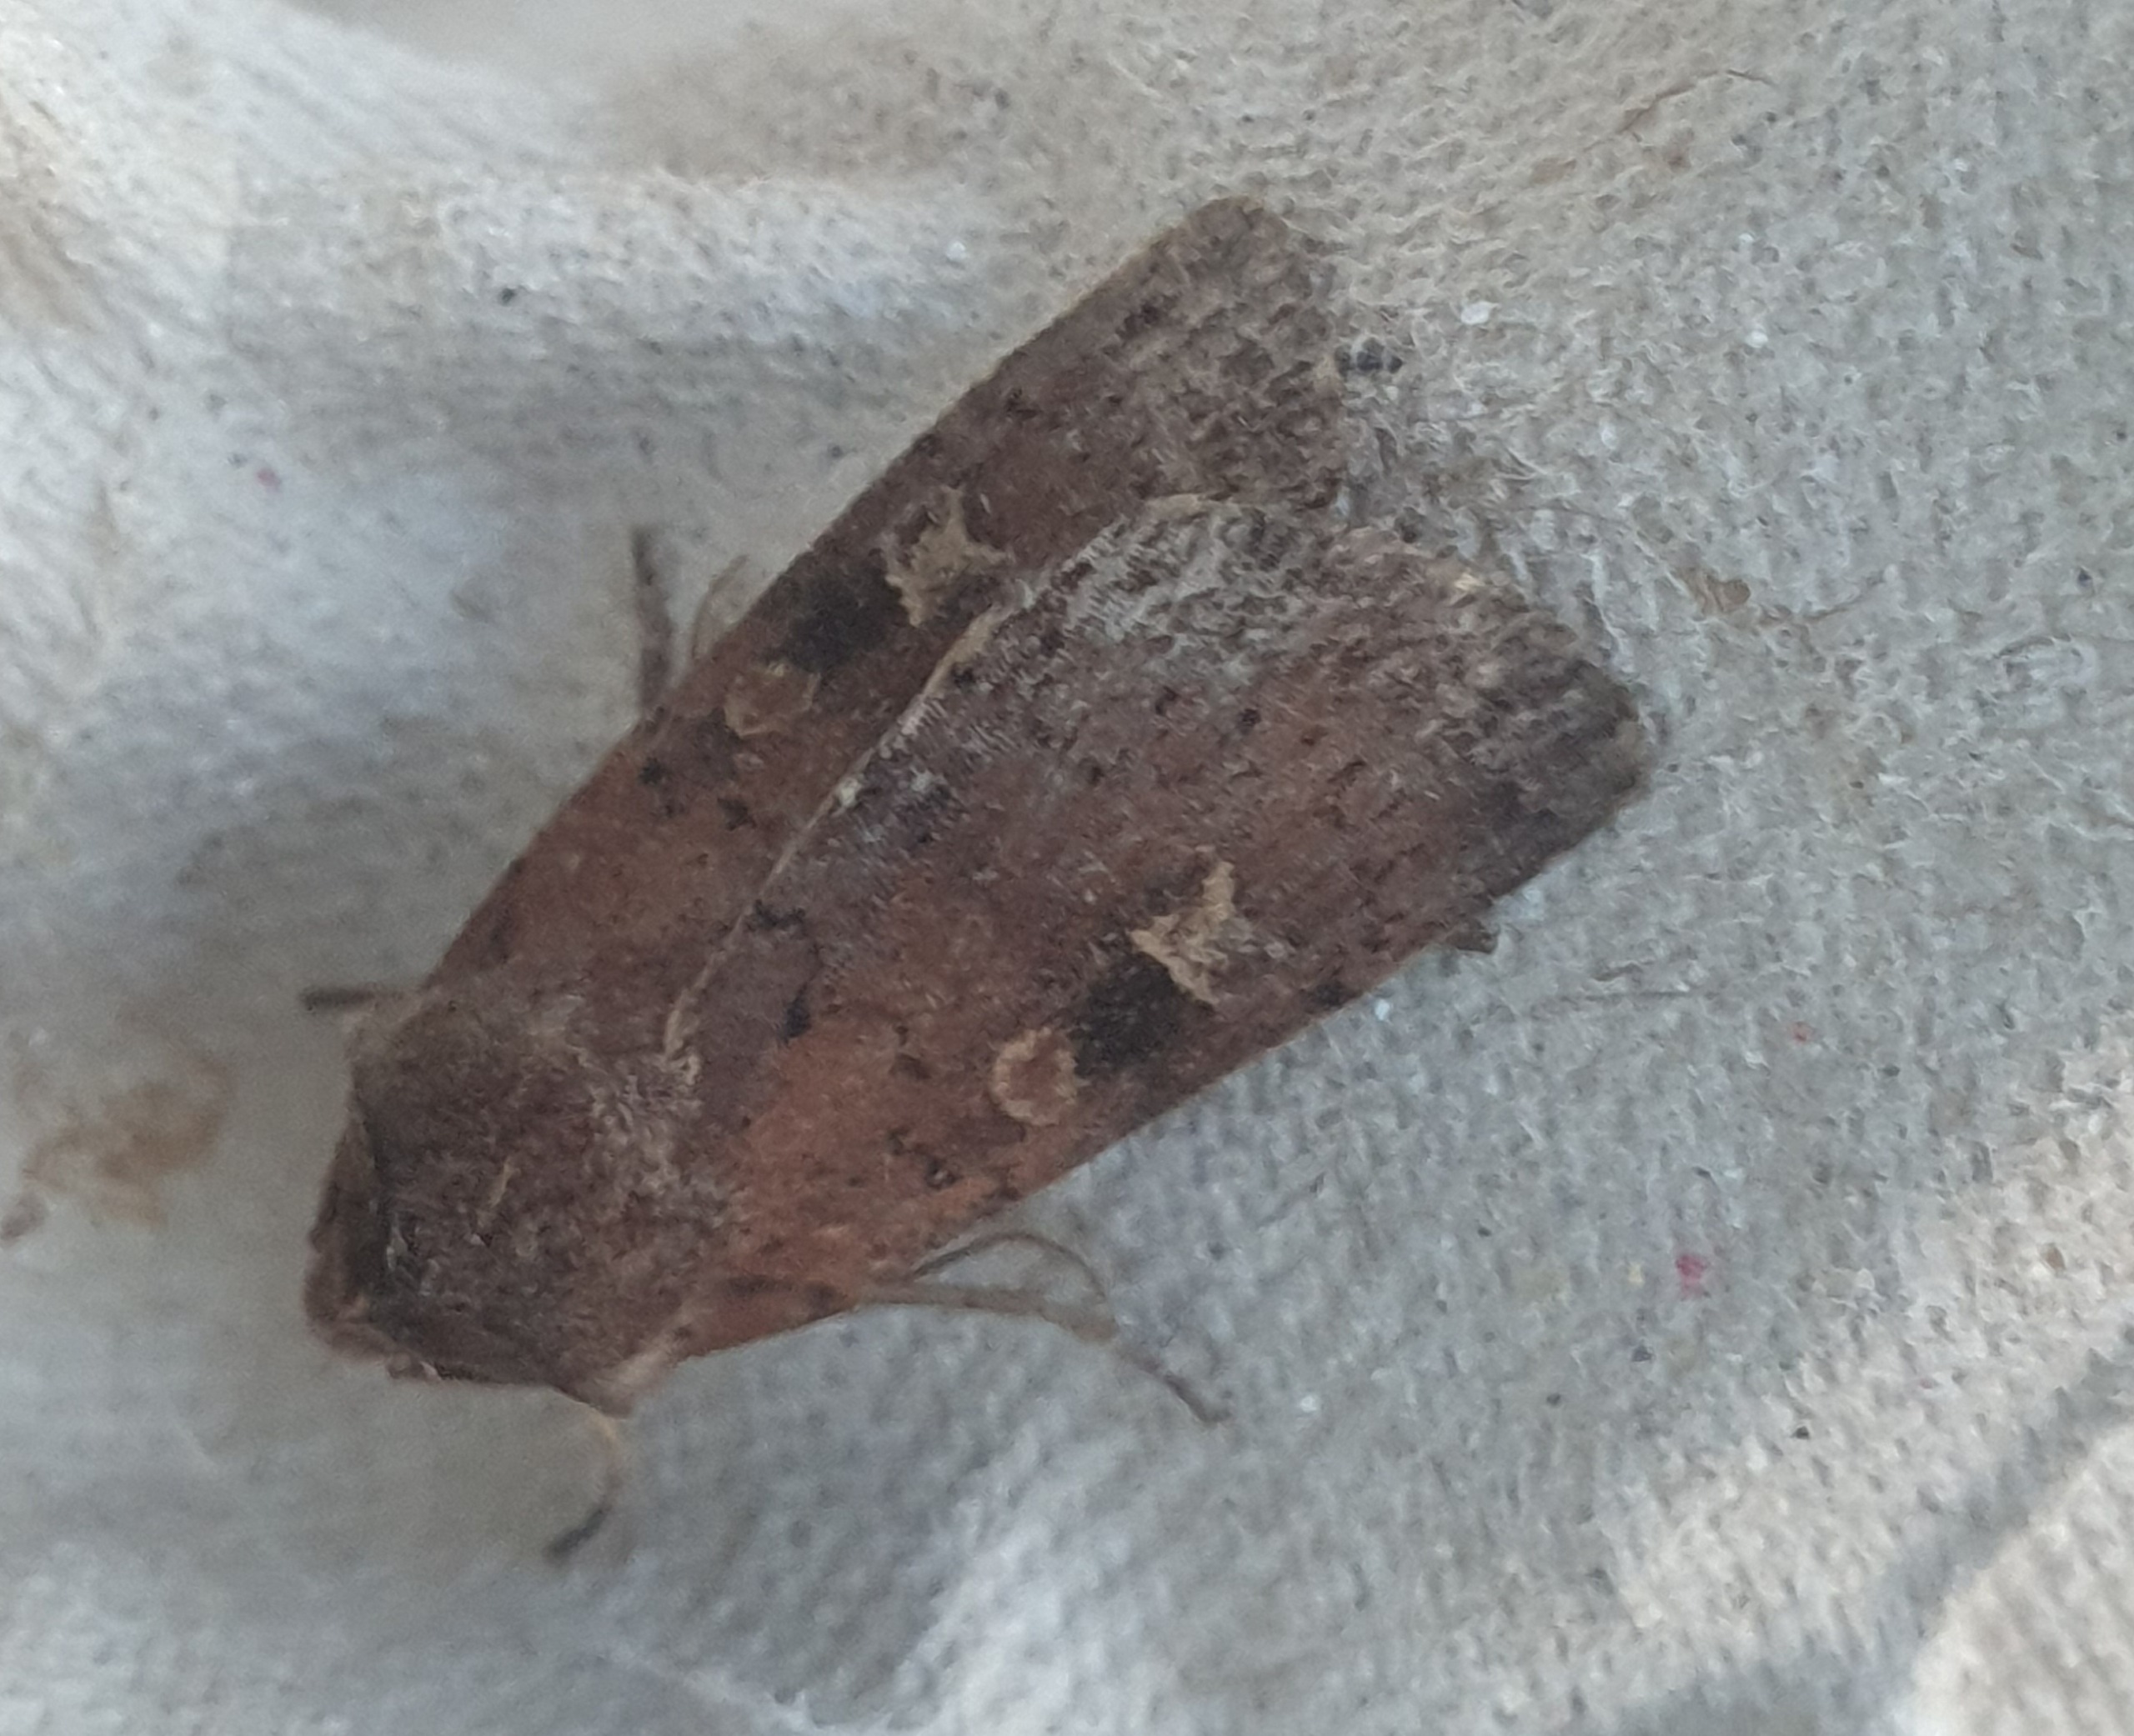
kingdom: Animalia
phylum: Arthropoda
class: Insecta
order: Lepidoptera
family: Noctuidae
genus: Xestia
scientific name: Xestia xanthographa
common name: Gulmærket glansugle
